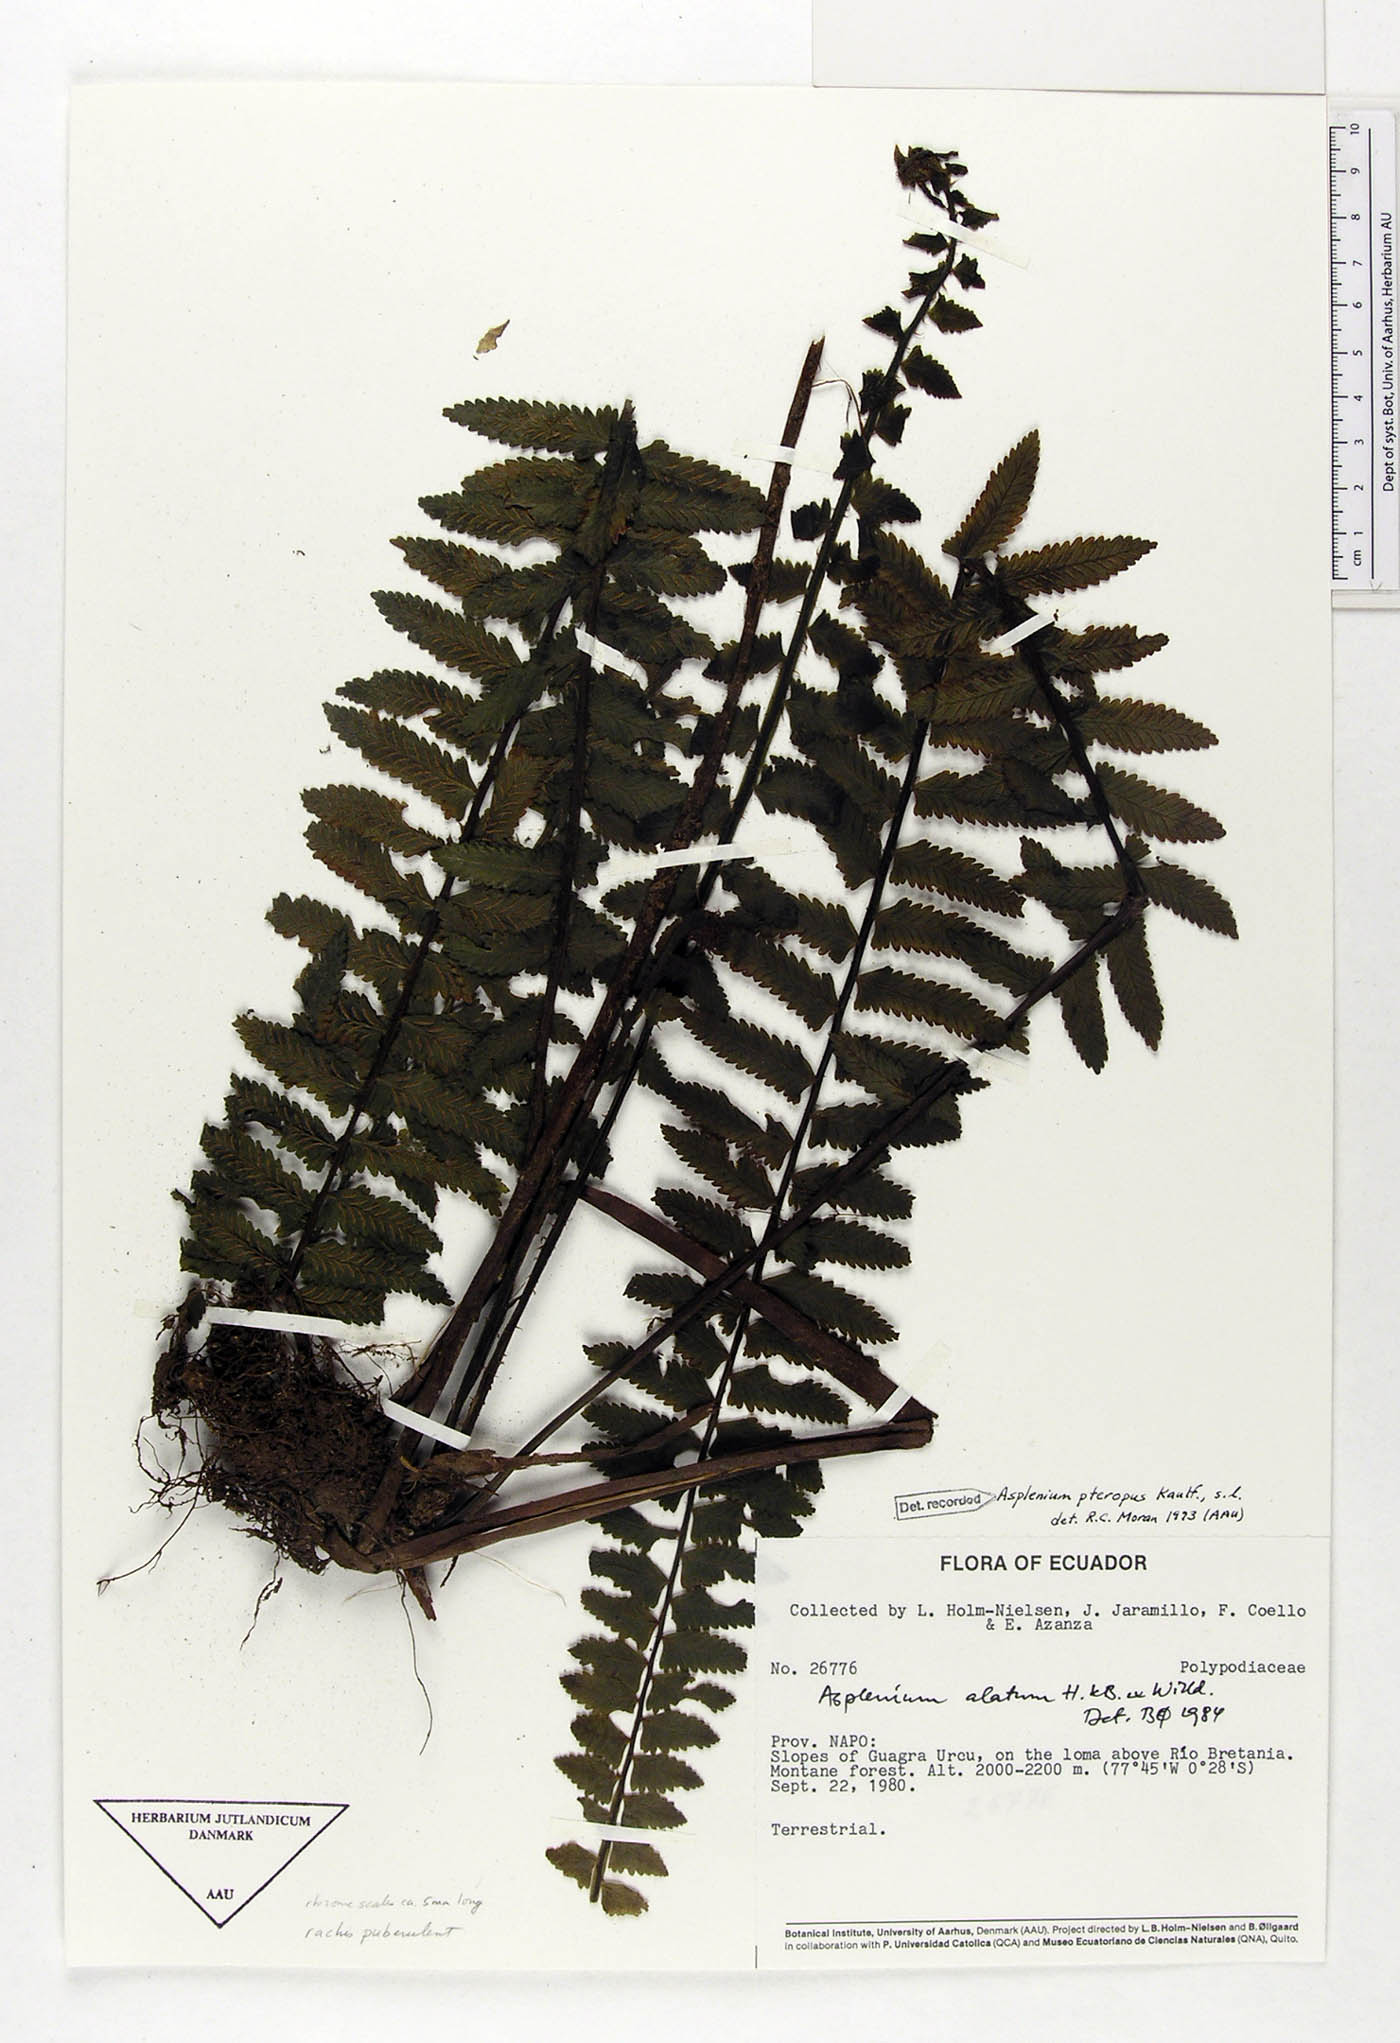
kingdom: Plantae
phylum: Tracheophyta
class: Polypodiopsida
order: Polypodiales
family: Aspleniaceae
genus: Asplenium
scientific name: Asplenium pteropus
